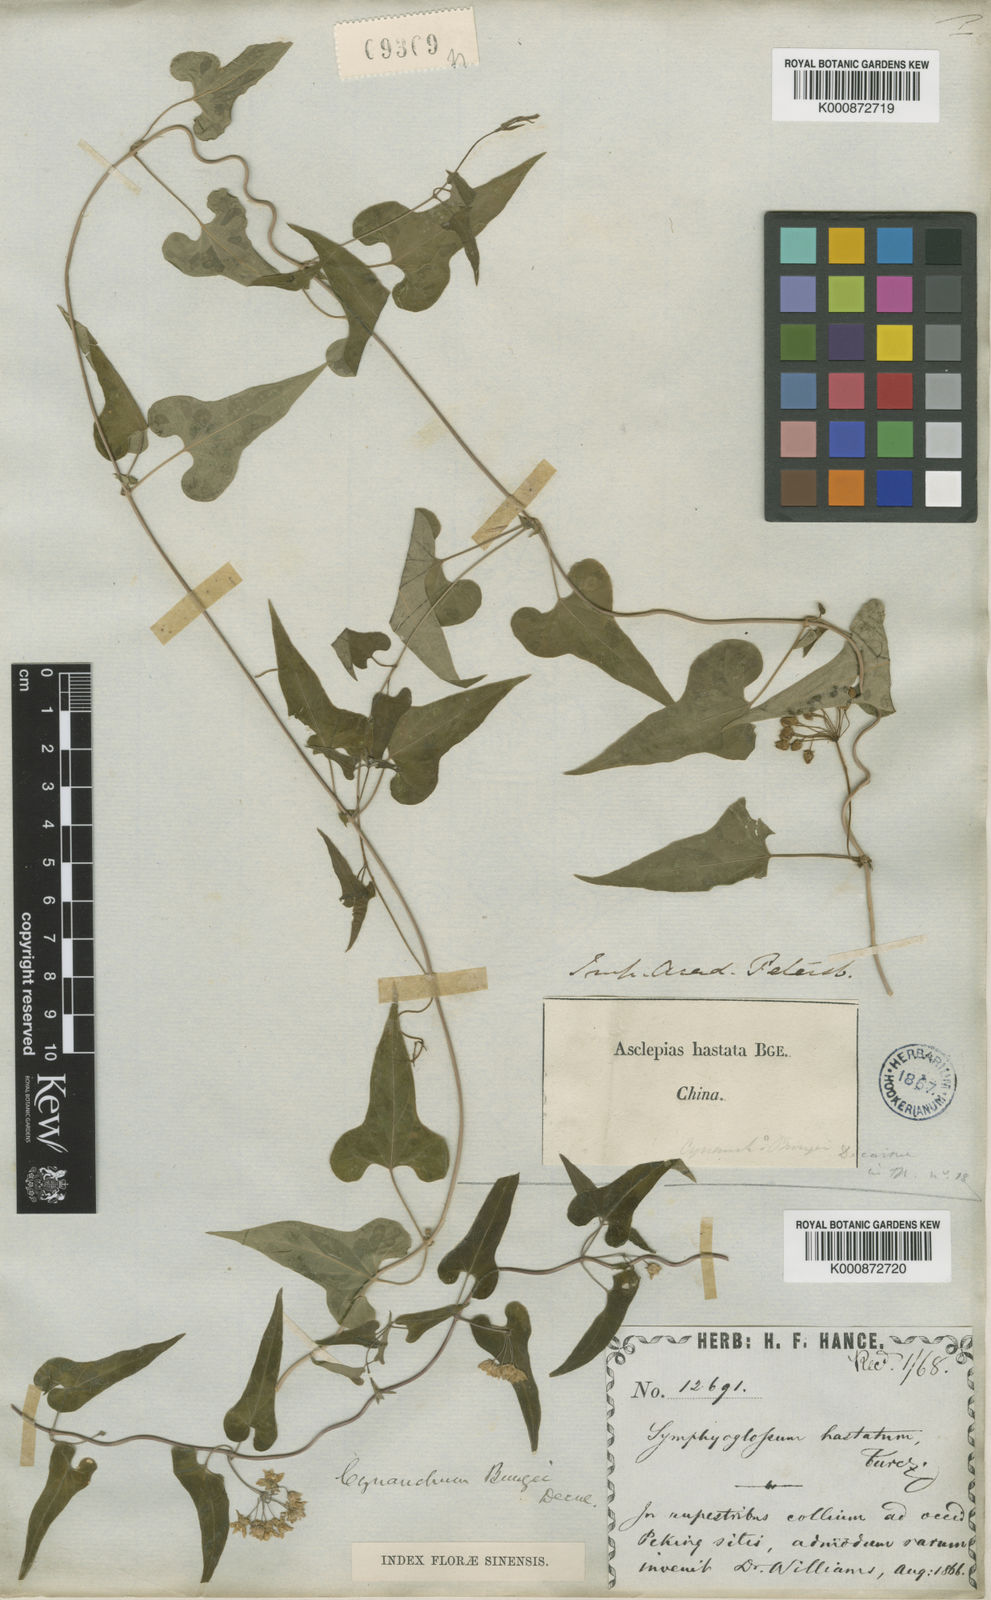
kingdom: Plantae
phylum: Tracheophyta
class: Magnoliopsida
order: Gentianales
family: Apocynaceae
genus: Cynanchum
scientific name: Cynanchum bungei
